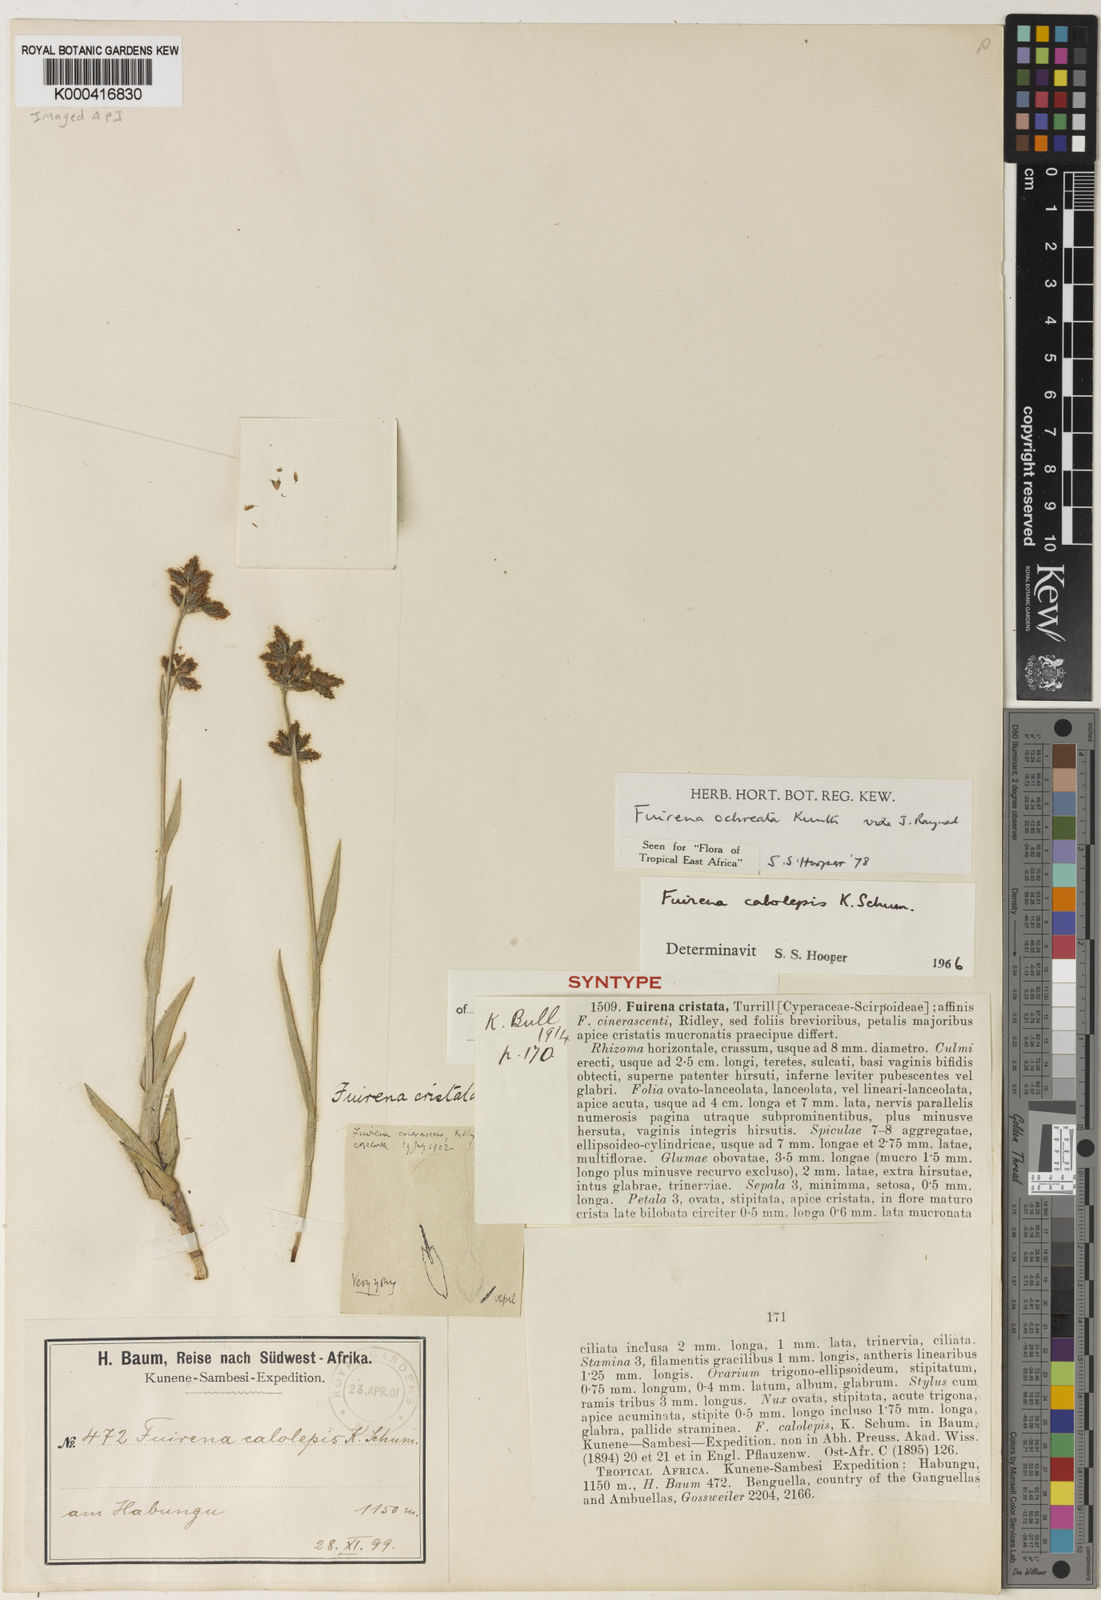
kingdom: Plantae
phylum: Tracheophyta
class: Liliopsida
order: Poales
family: Cyperaceae
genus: Fuirena
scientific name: Fuirena ochreata
